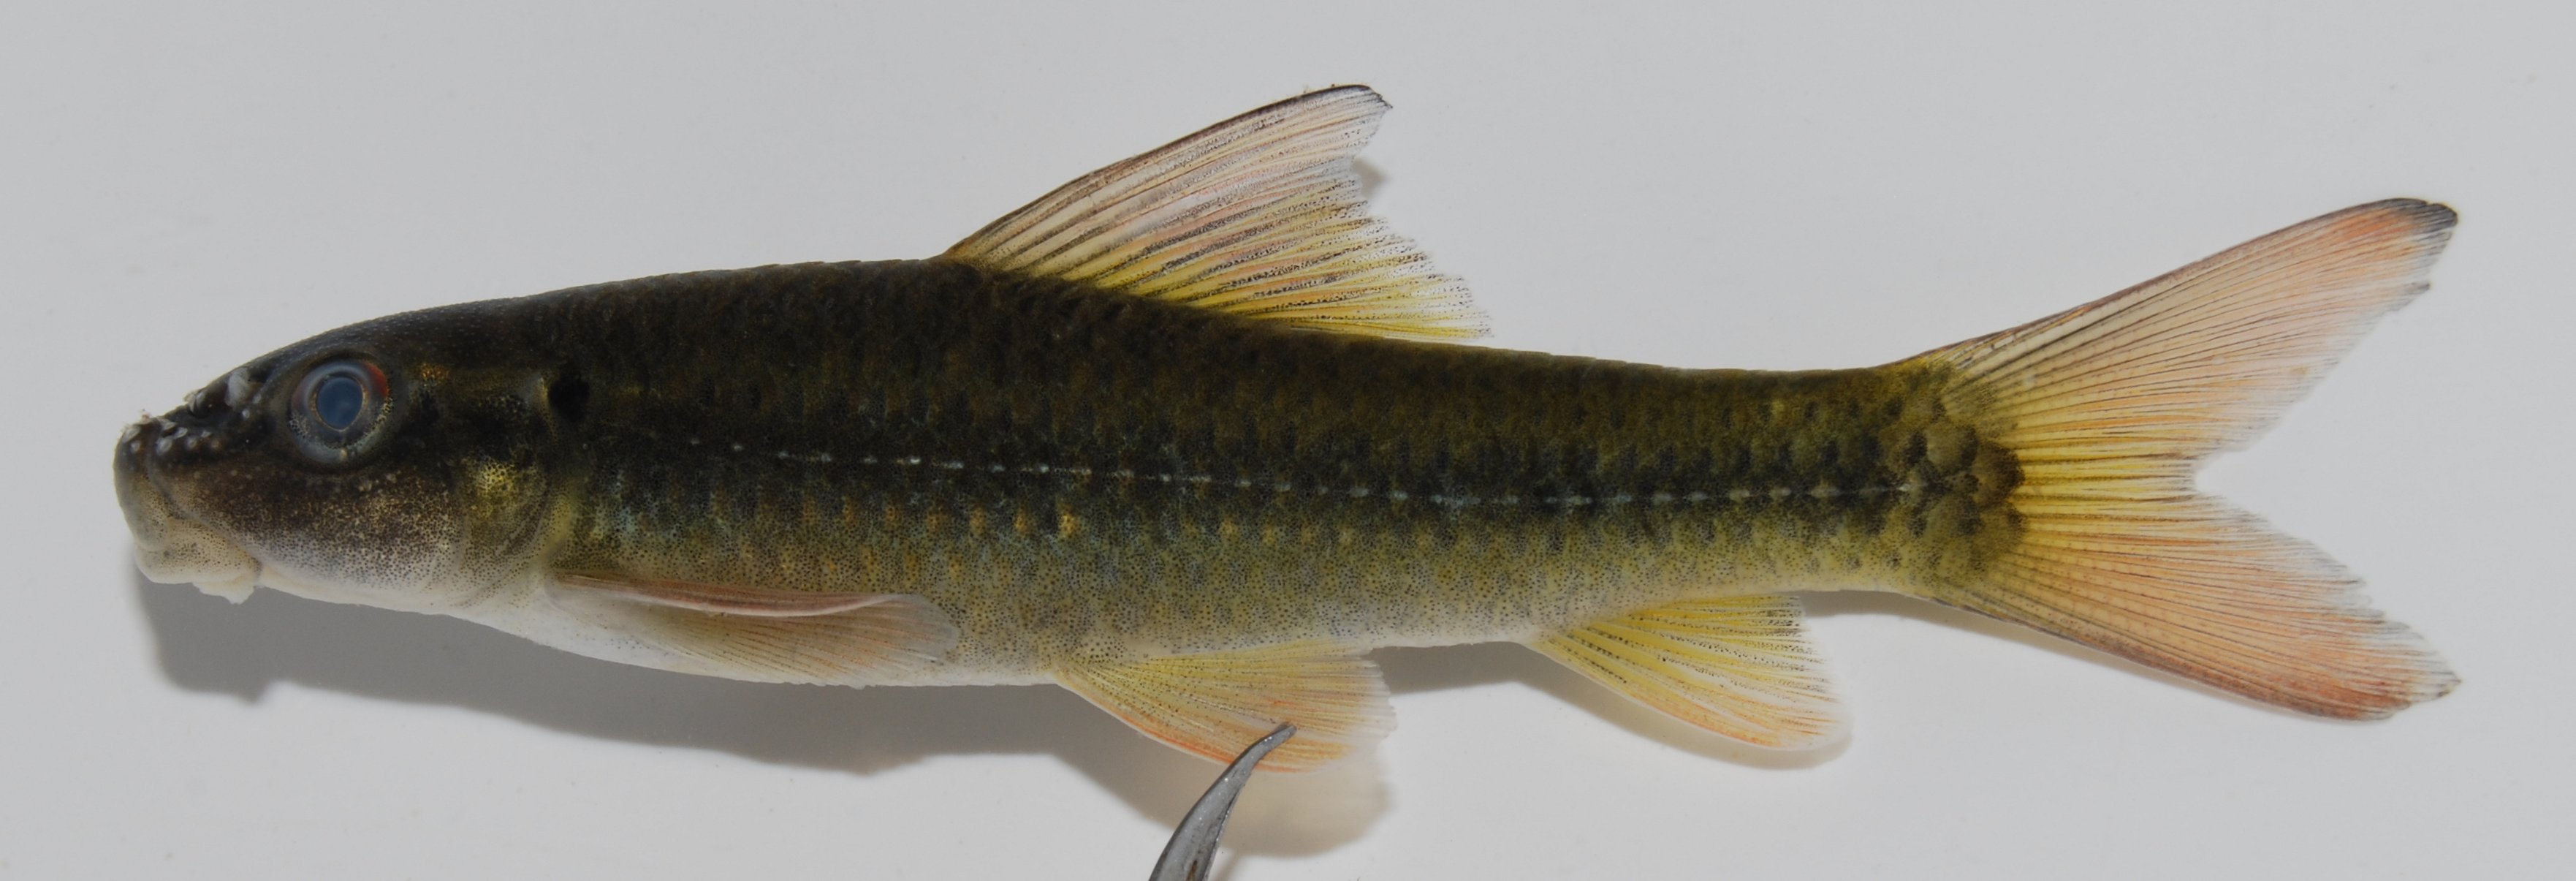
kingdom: Animalia
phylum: Chordata
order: Cypriniformes
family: Cyprinidae
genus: Labeo
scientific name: Labeo cylindricus
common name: Redeye labeo
